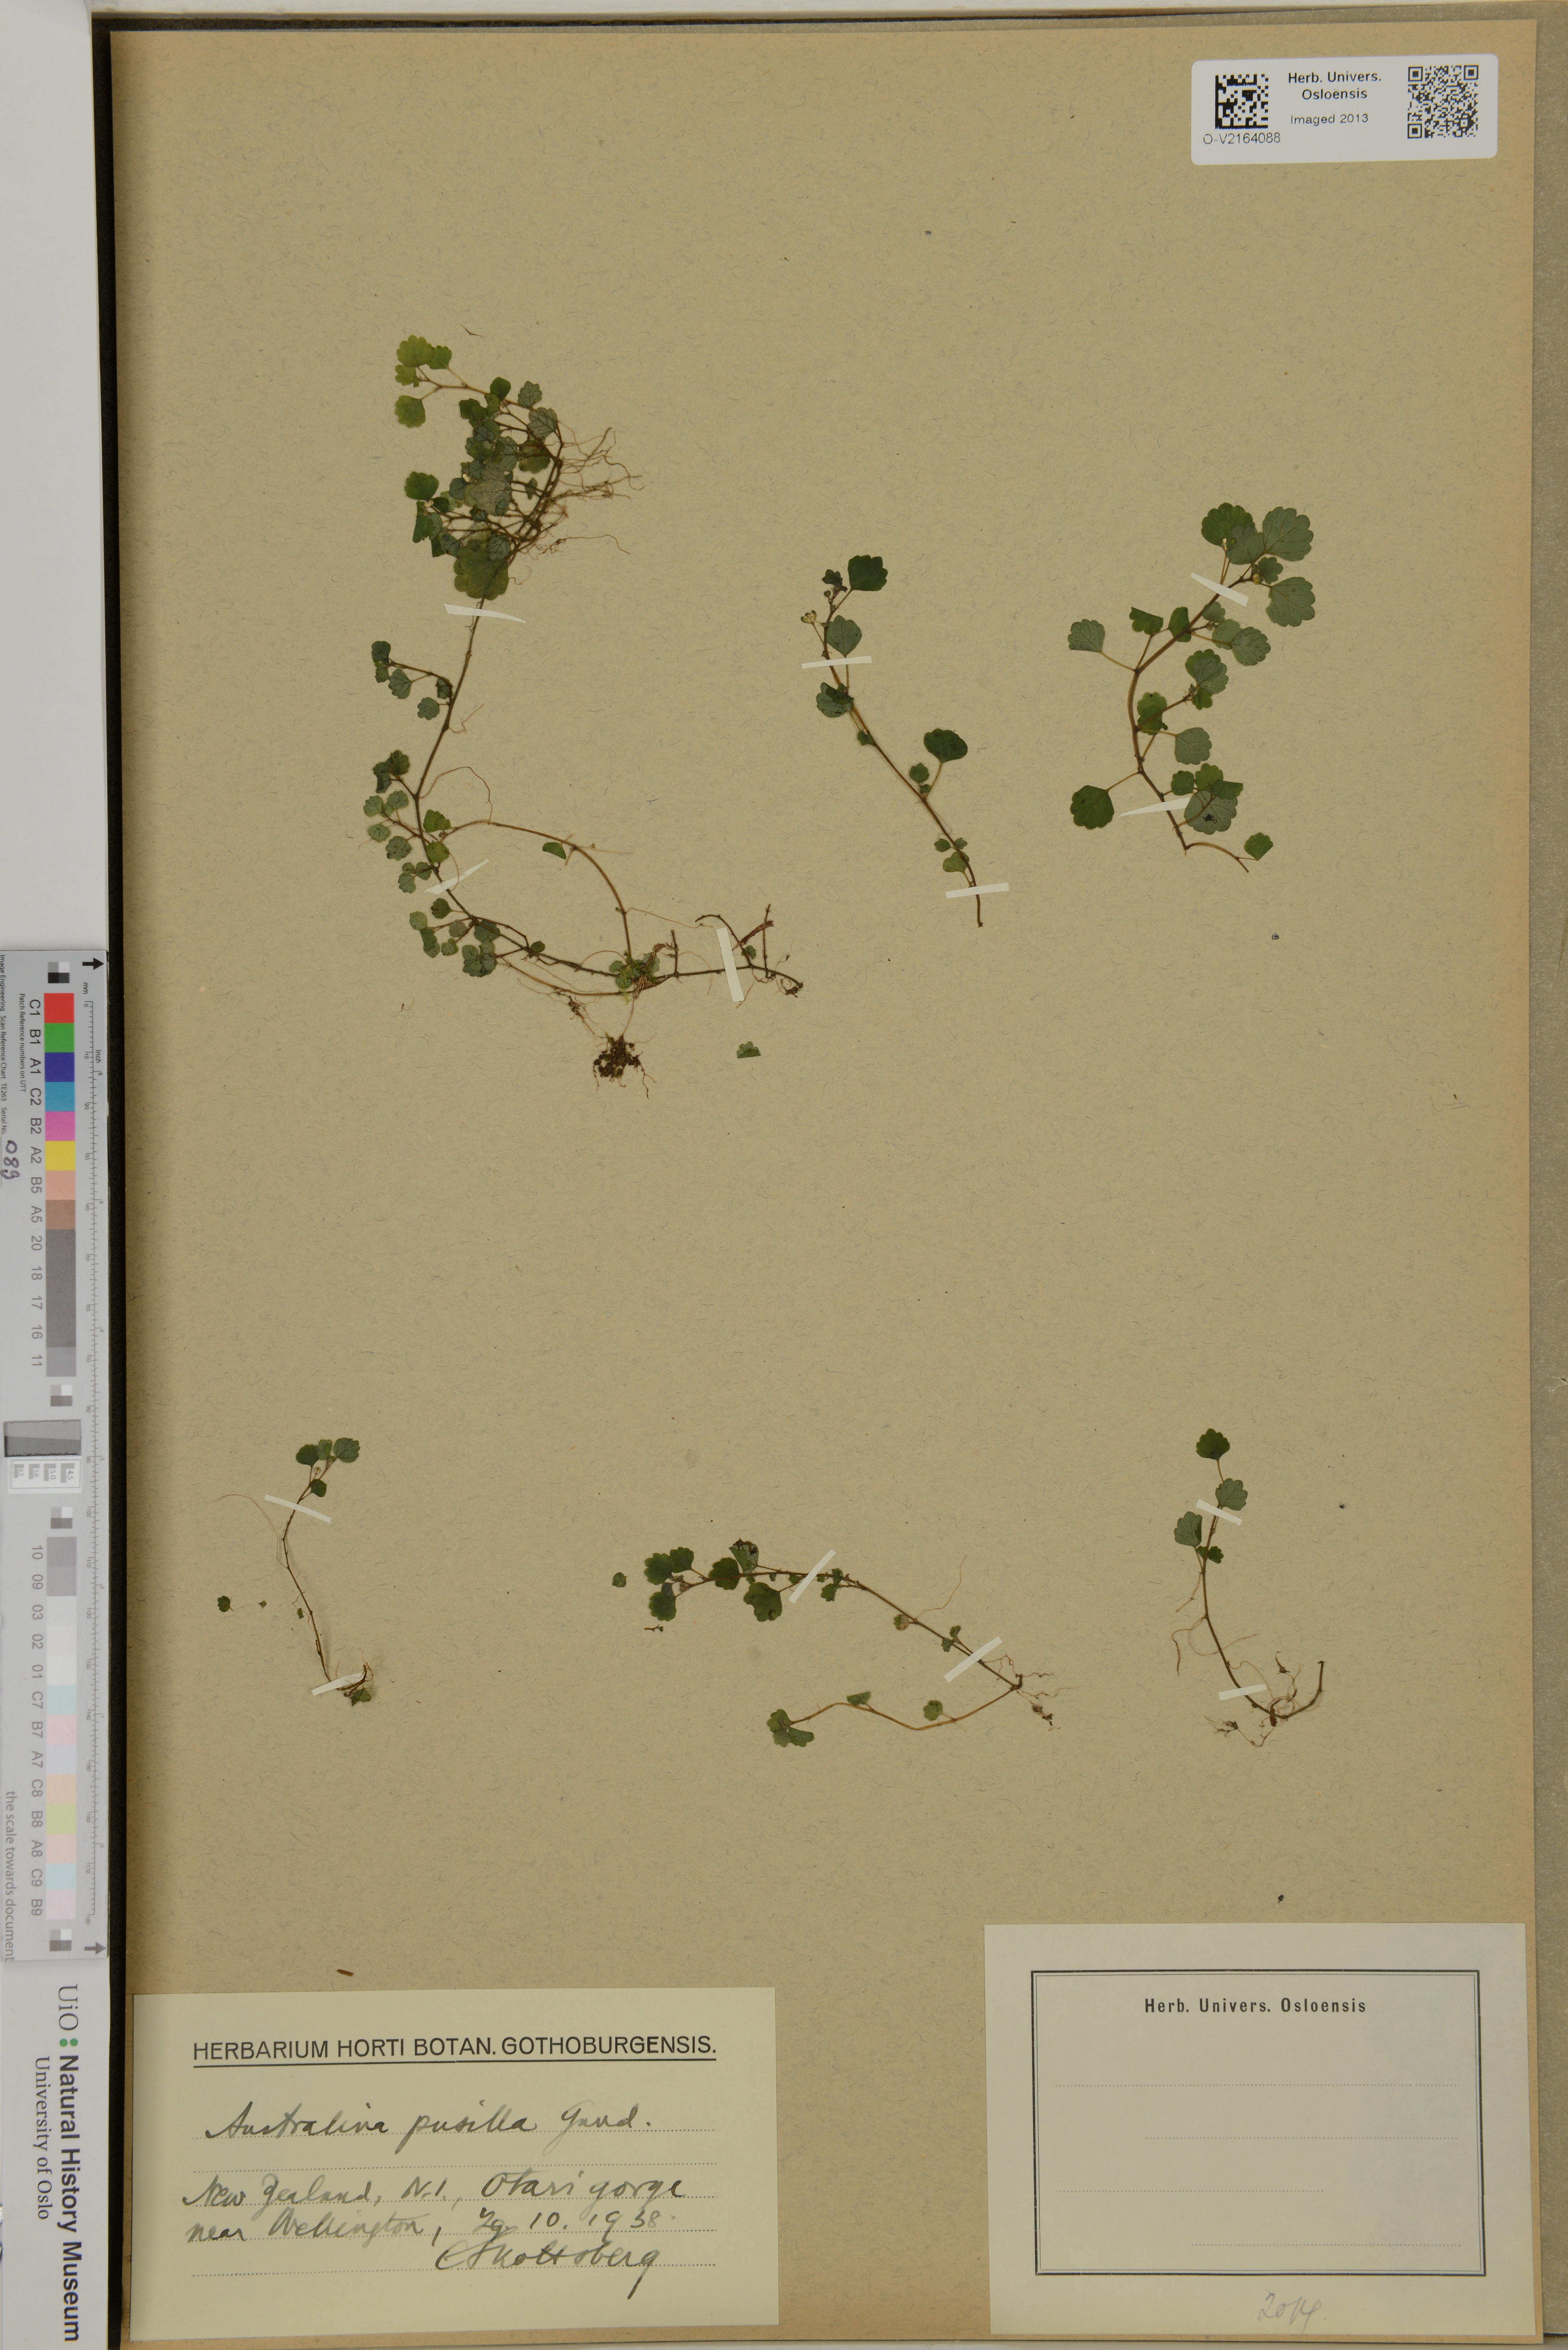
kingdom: Plantae
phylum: Tracheophyta
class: Magnoliopsida
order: Rosales
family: Urticaceae
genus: Australina
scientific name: Australina pusilla
